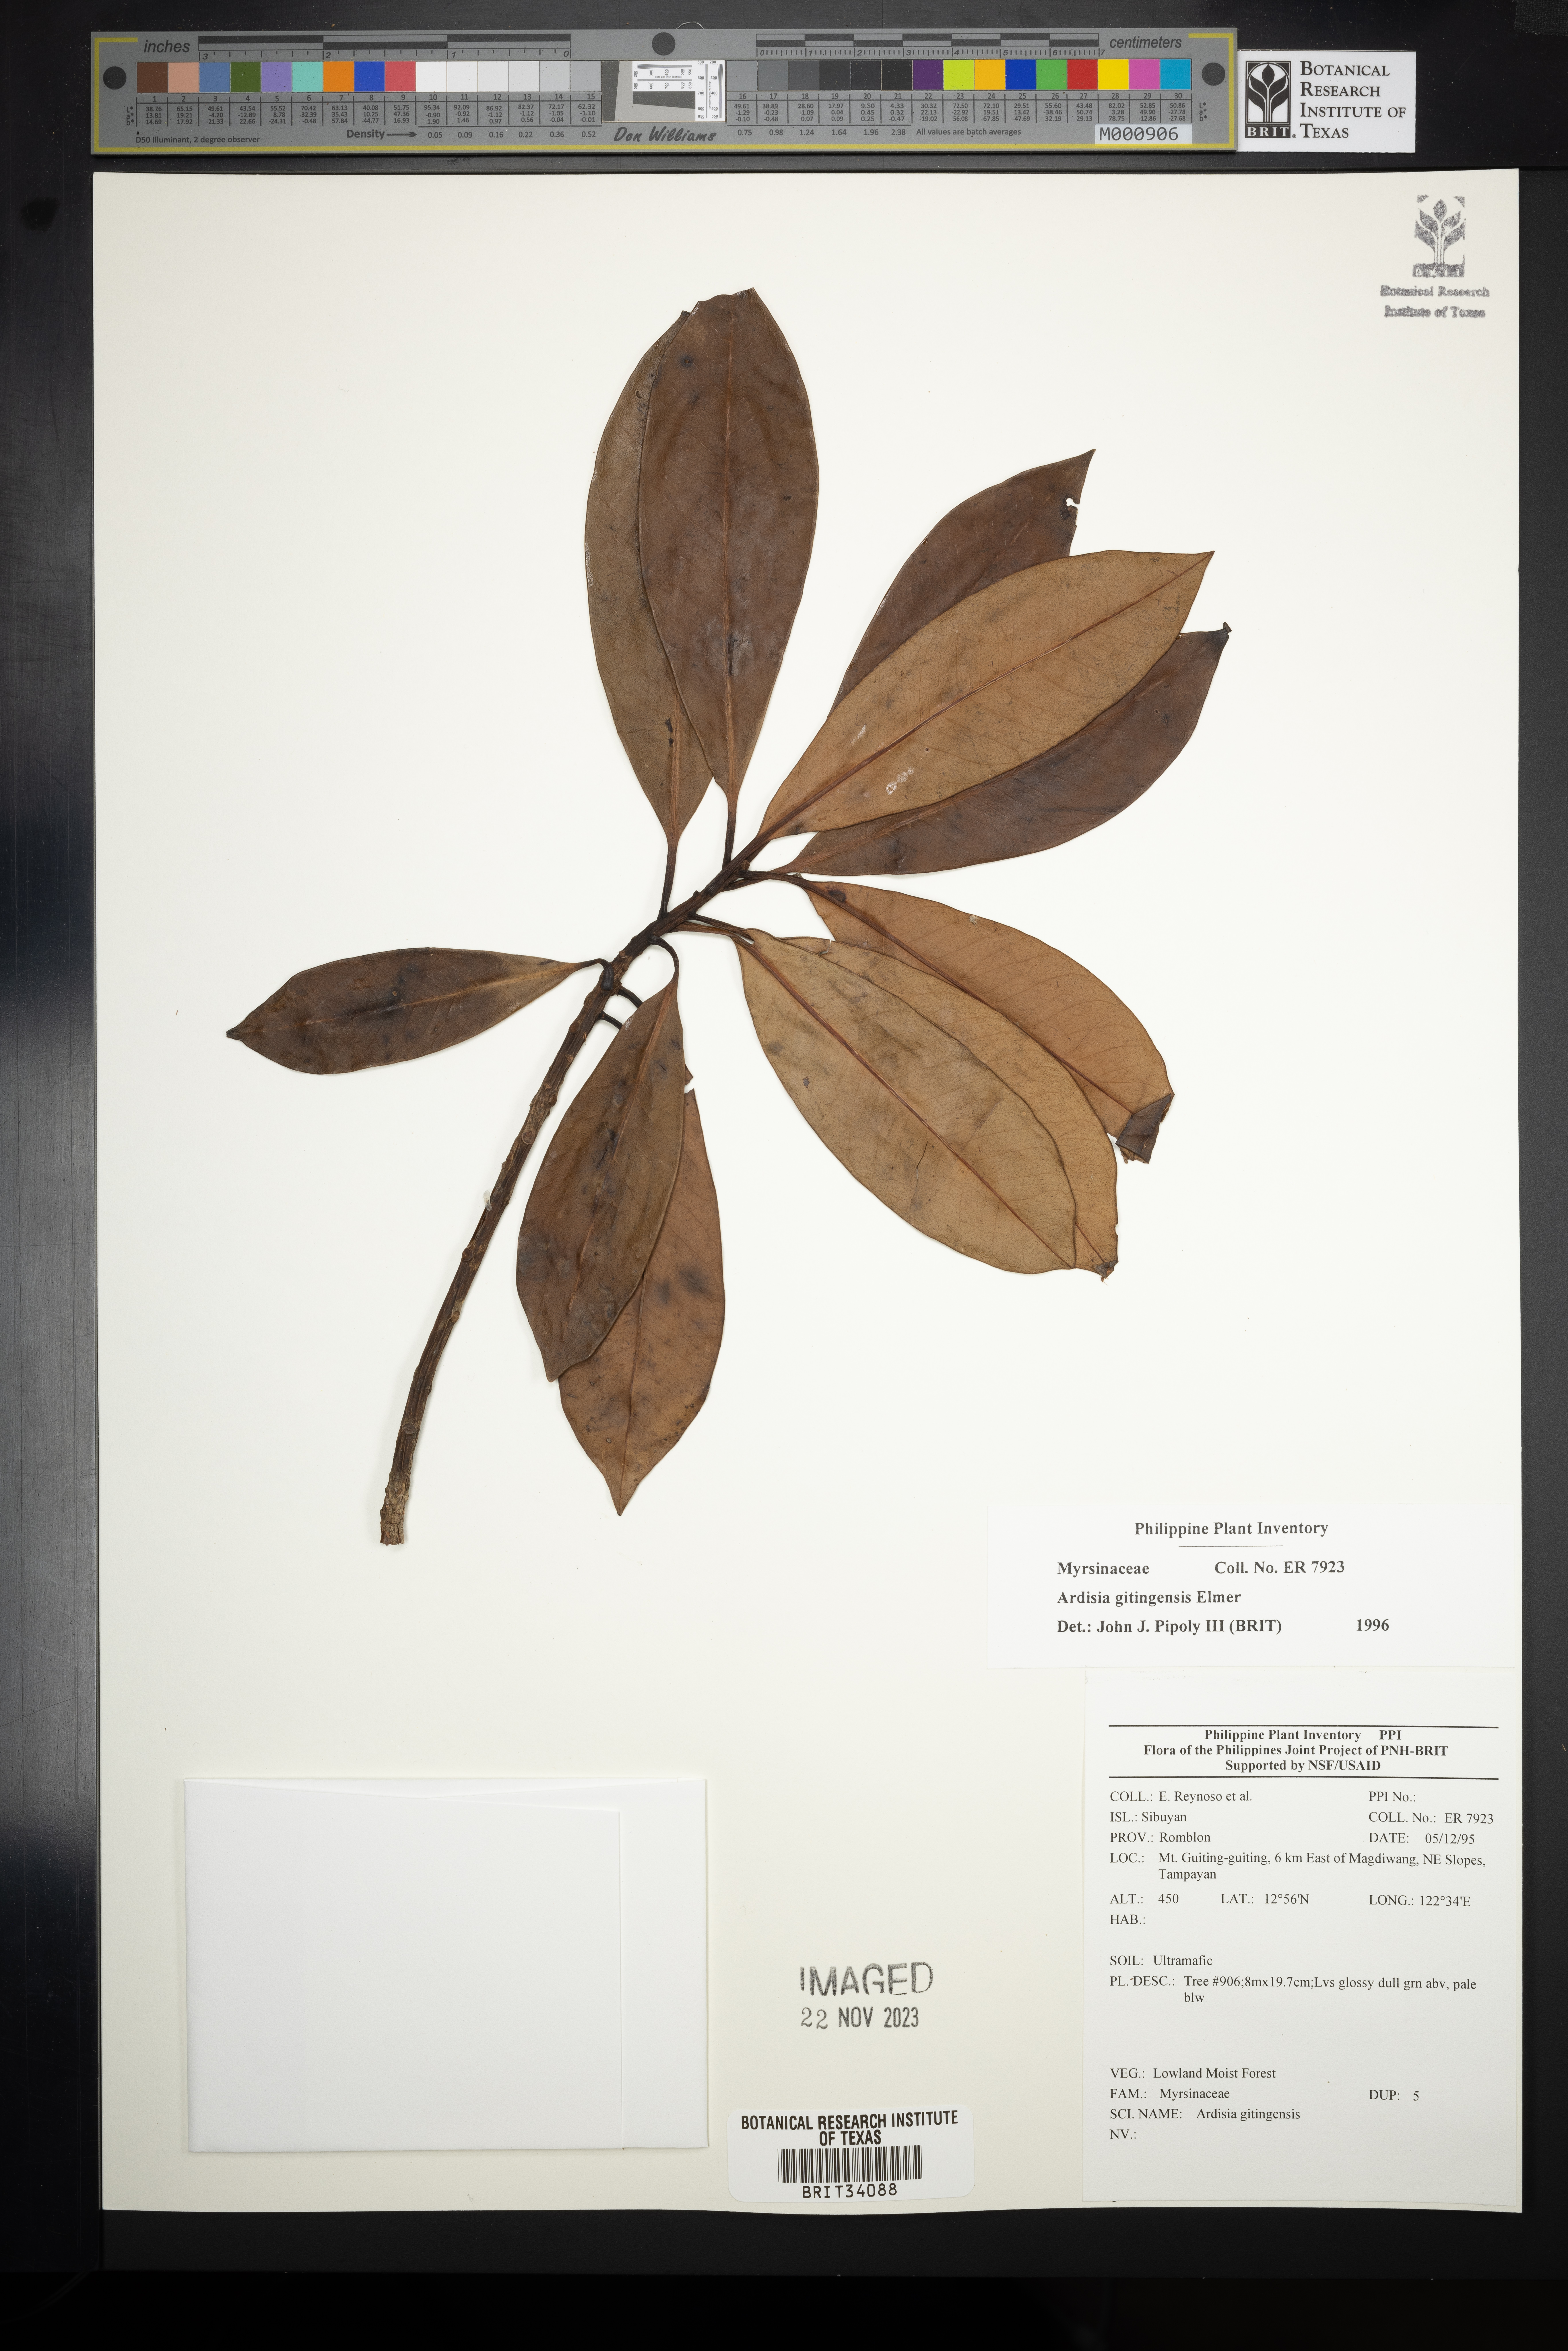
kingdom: Plantae
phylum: Tracheophyta
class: Magnoliopsida
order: Ericales
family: Primulaceae
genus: Ardisia
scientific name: Ardisia darlingii
